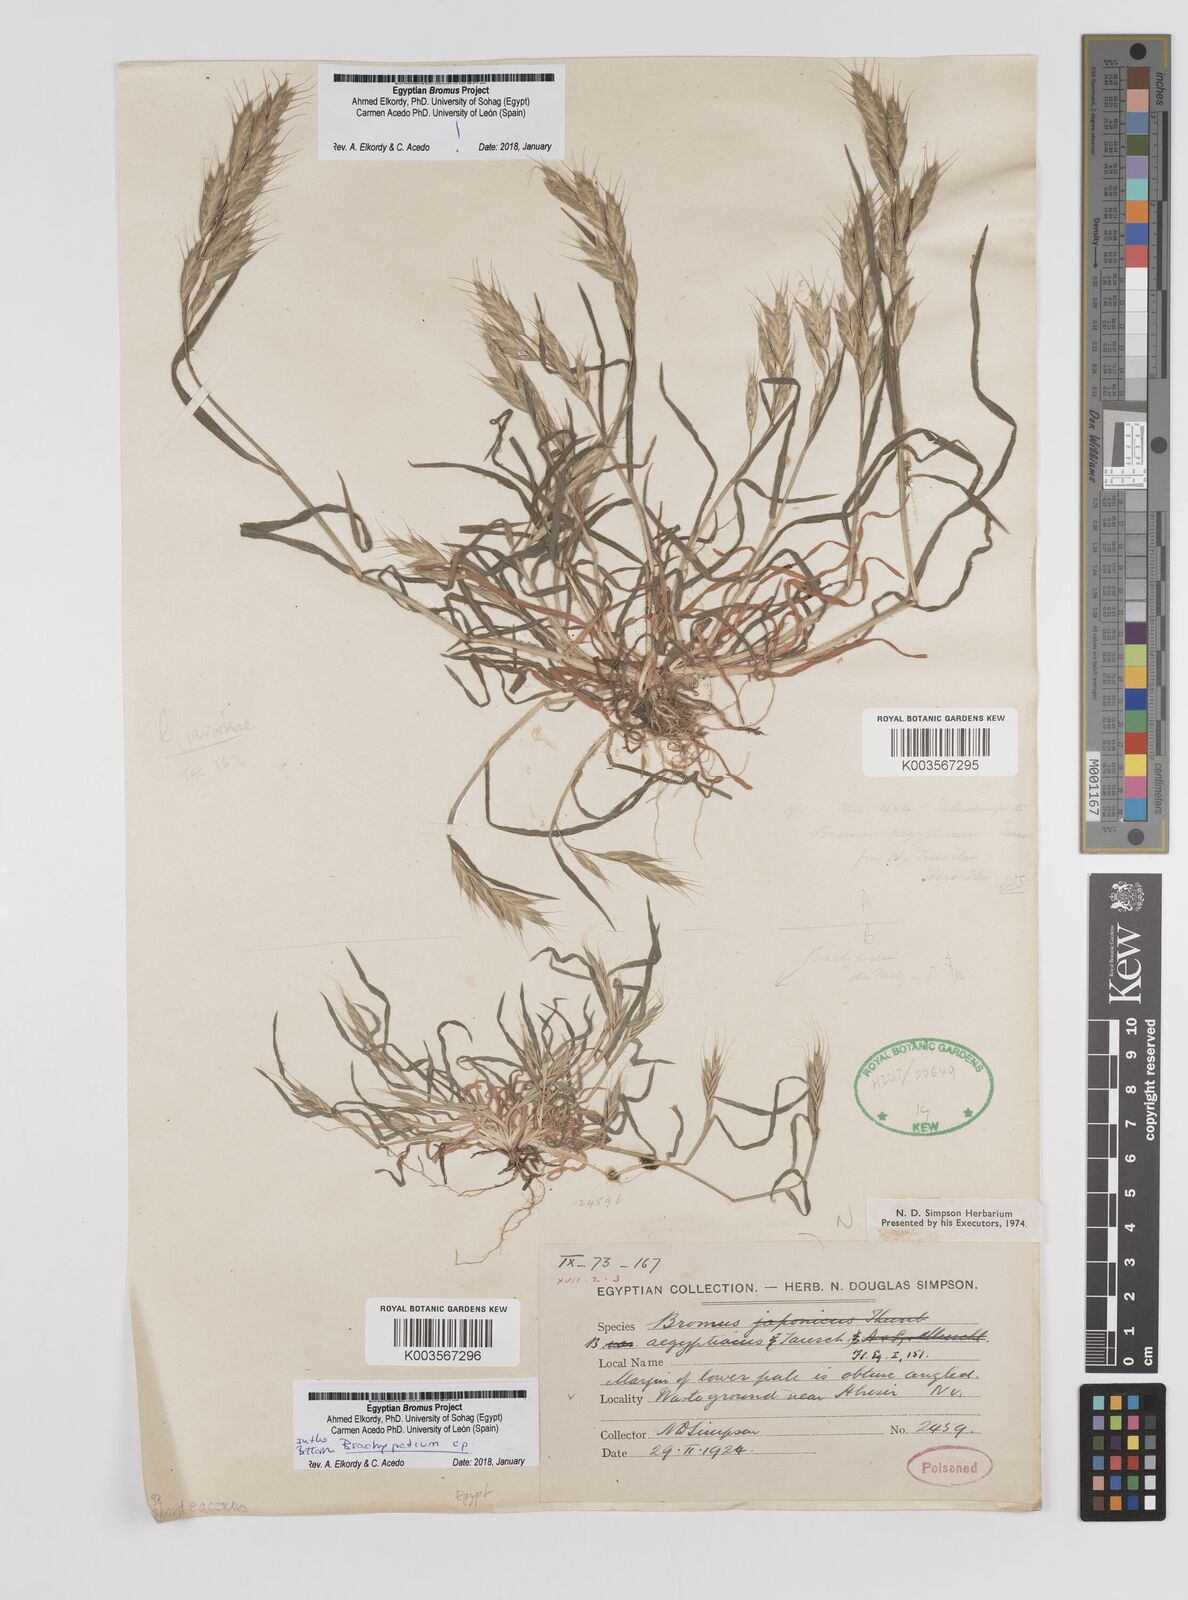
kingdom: Plantae
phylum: Tracheophyta
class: Liliopsida
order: Poales
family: Poaceae
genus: Bromus
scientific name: Bromus hordeaceus
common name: Soft brome
